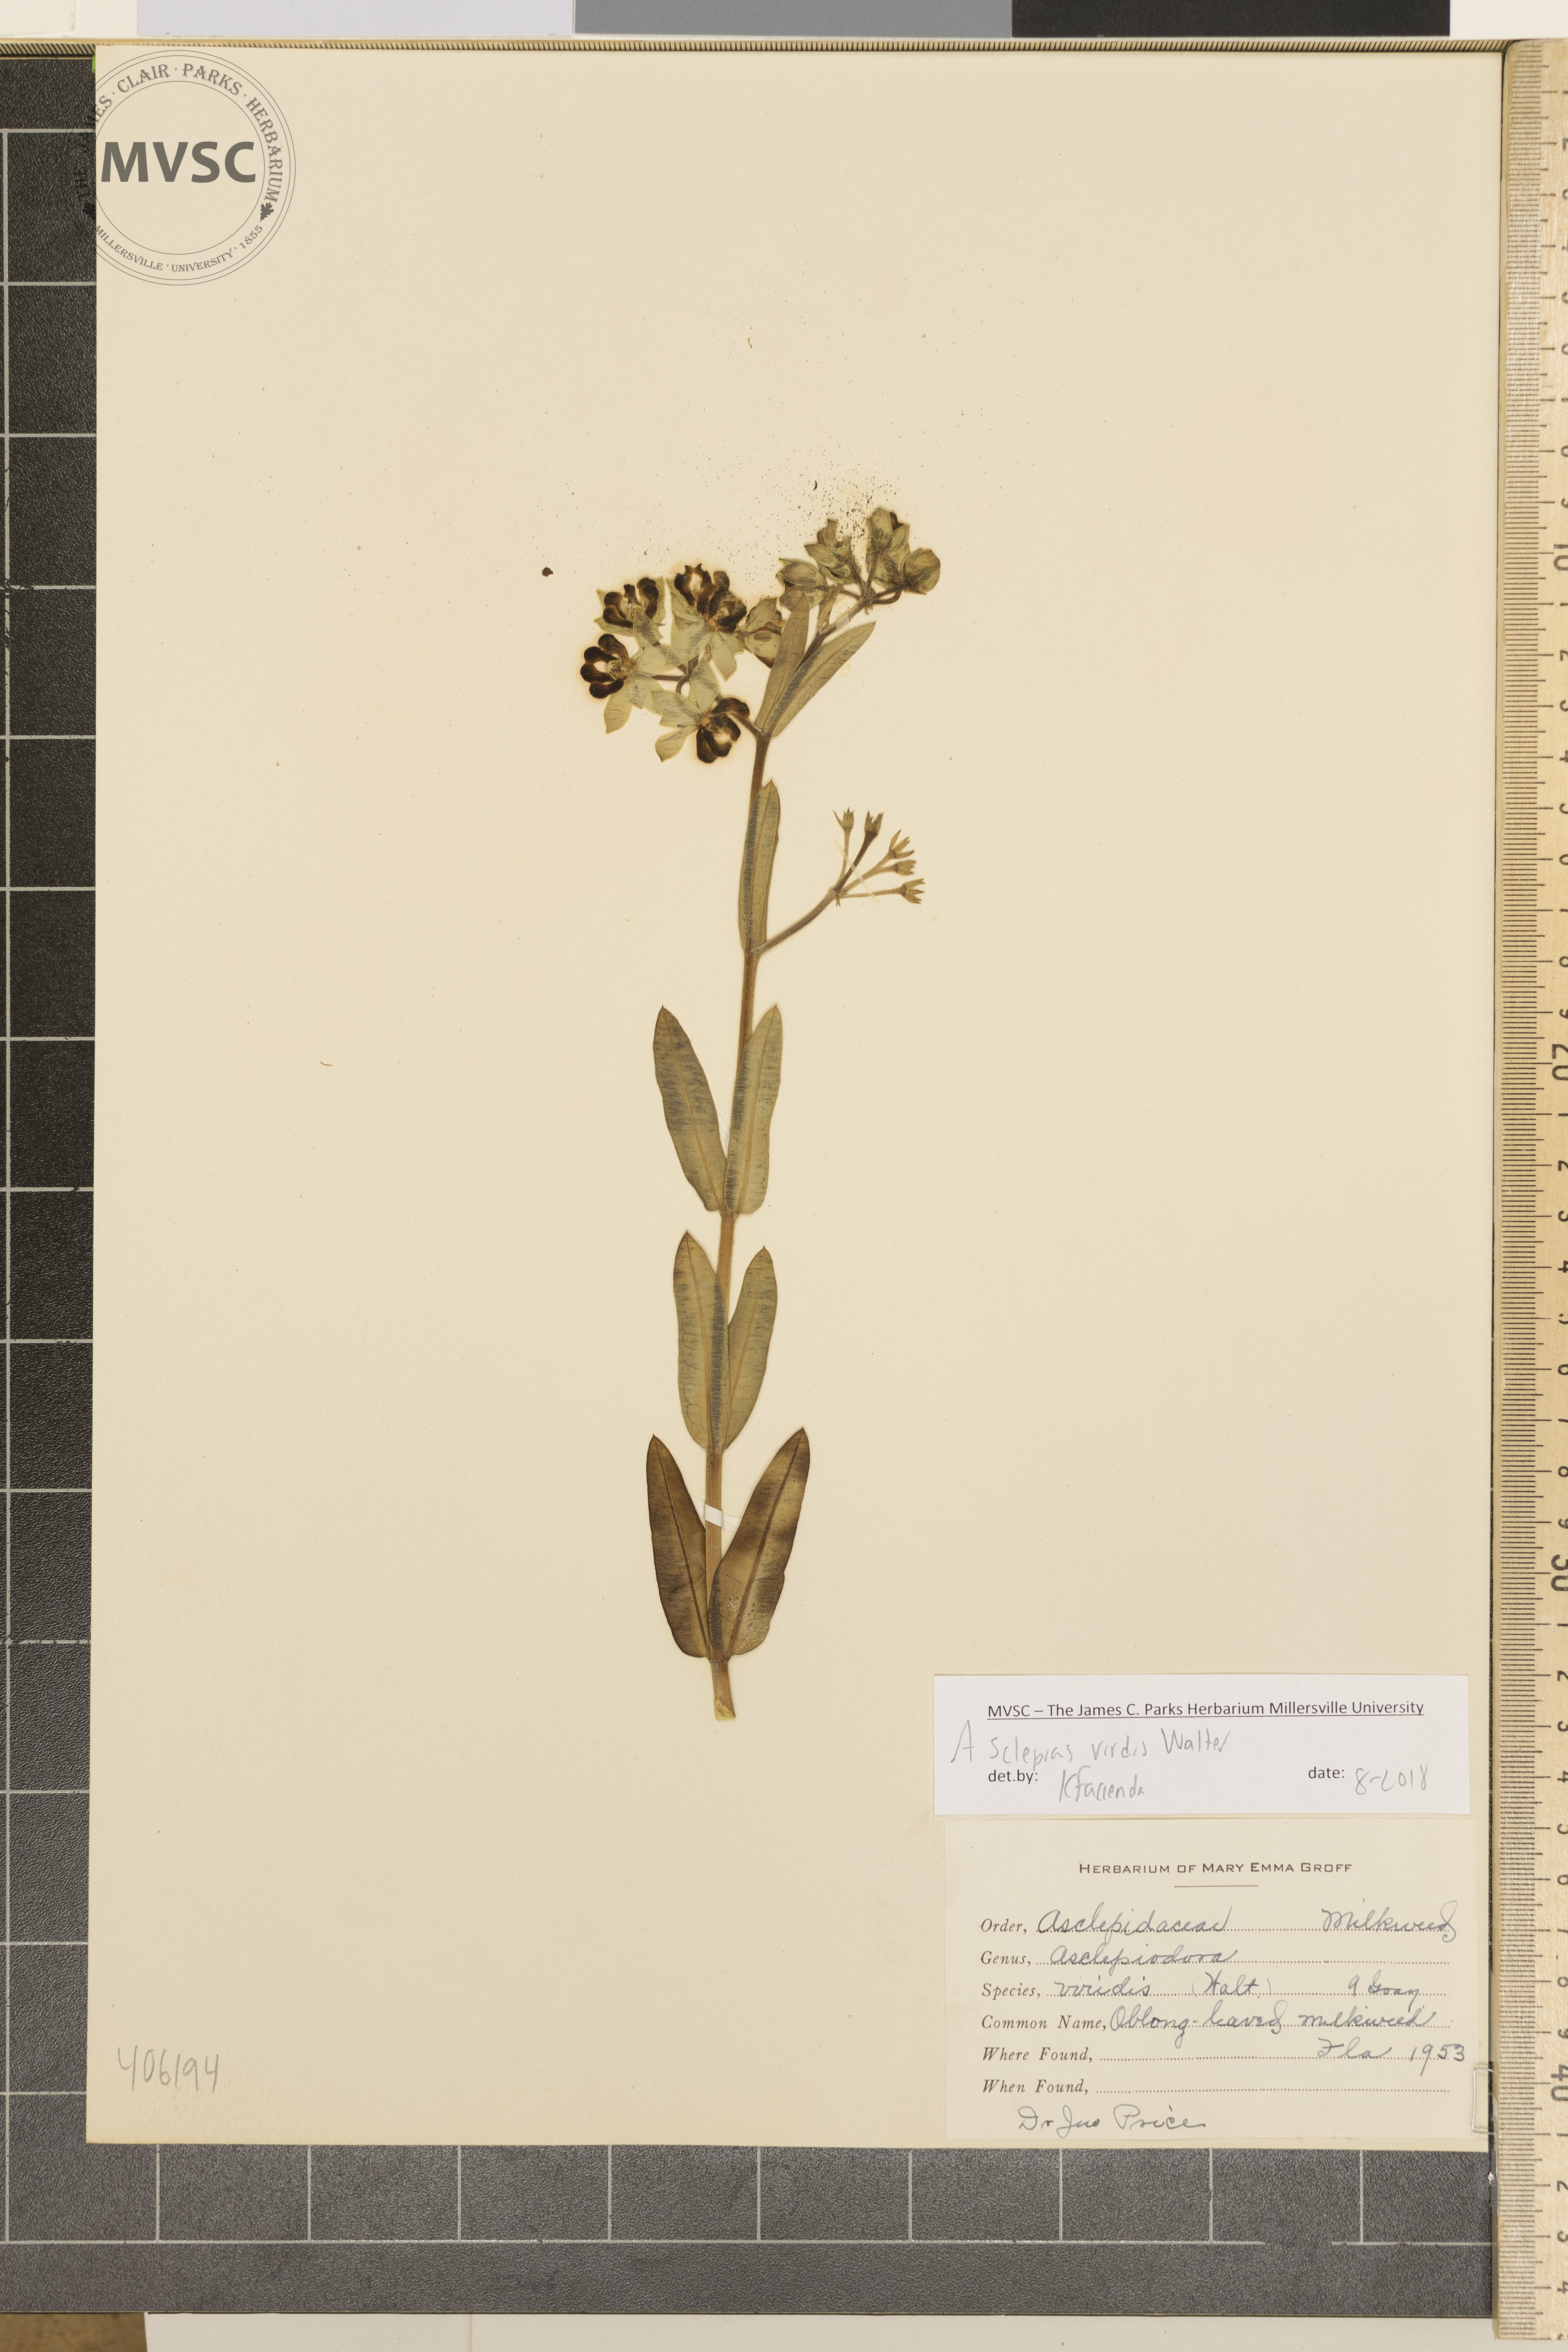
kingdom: Plantae
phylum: Tracheophyta
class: Magnoliopsida
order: Gentianales
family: Apocynaceae
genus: Asclepias
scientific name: Asclepias viridis
